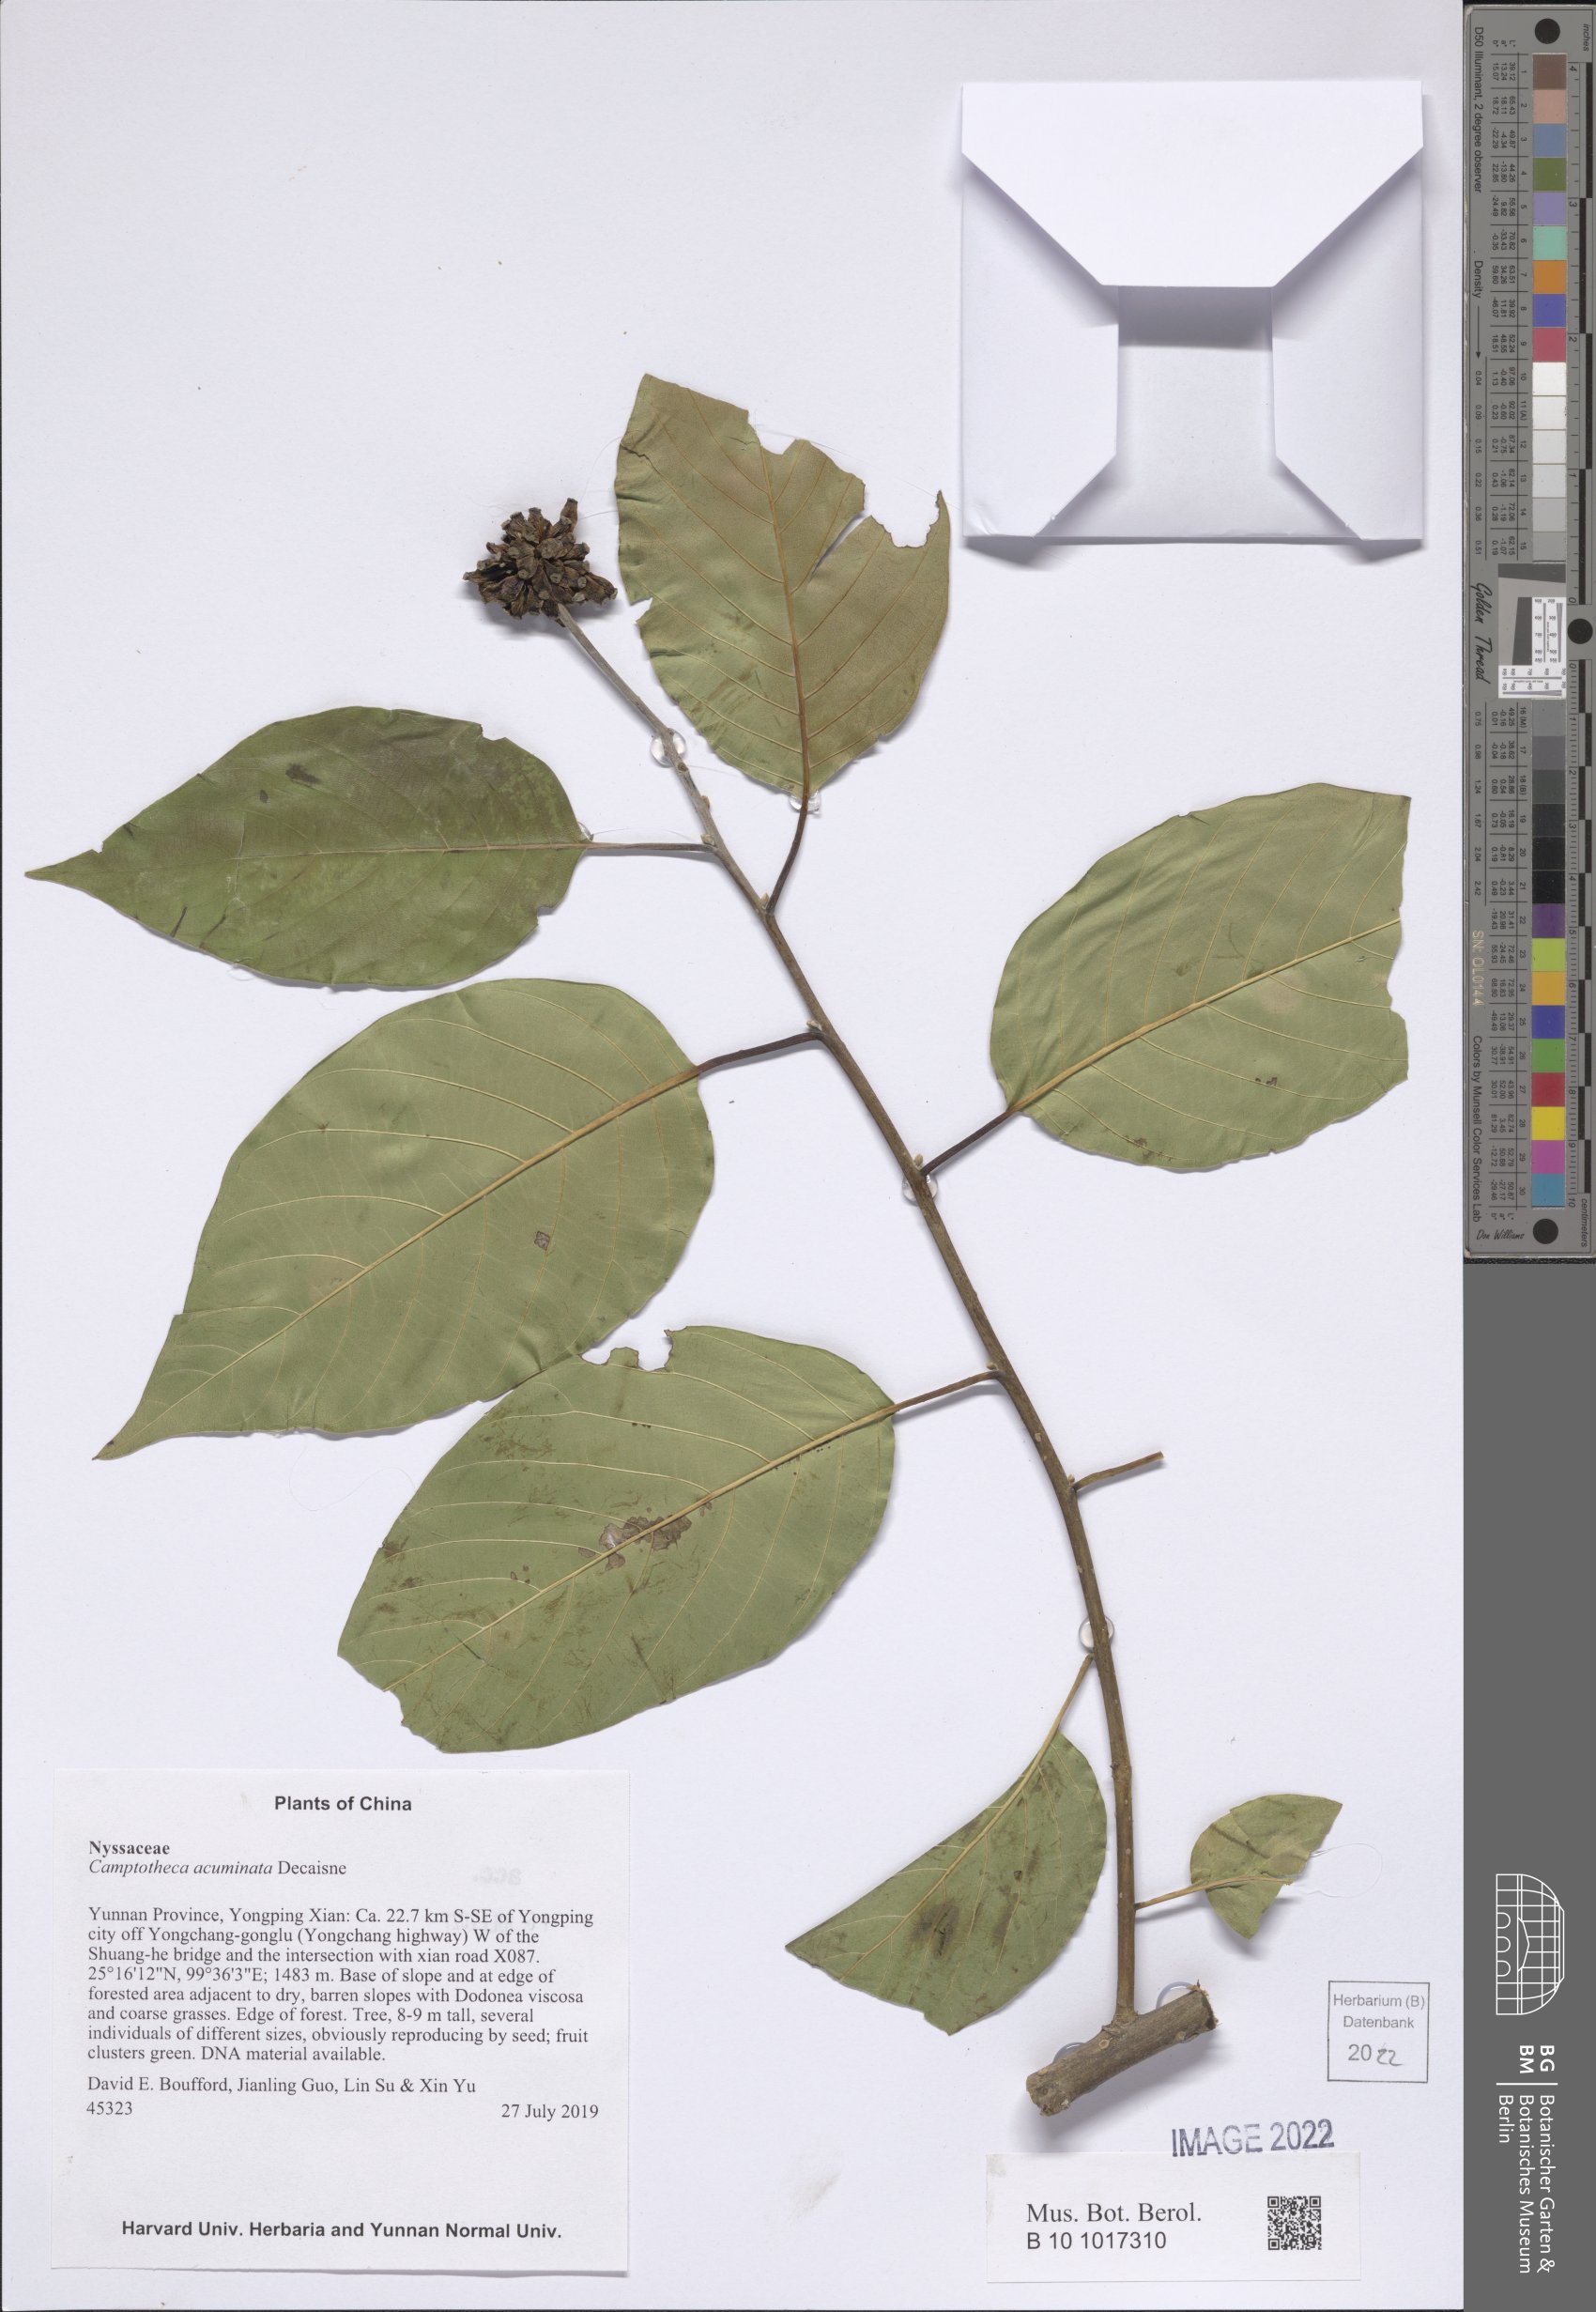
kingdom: Plantae
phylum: Tracheophyta
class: Magnoliopsida
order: Cornales
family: Nyssaceae
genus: Camptotheca
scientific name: Camptotheca acuminata
